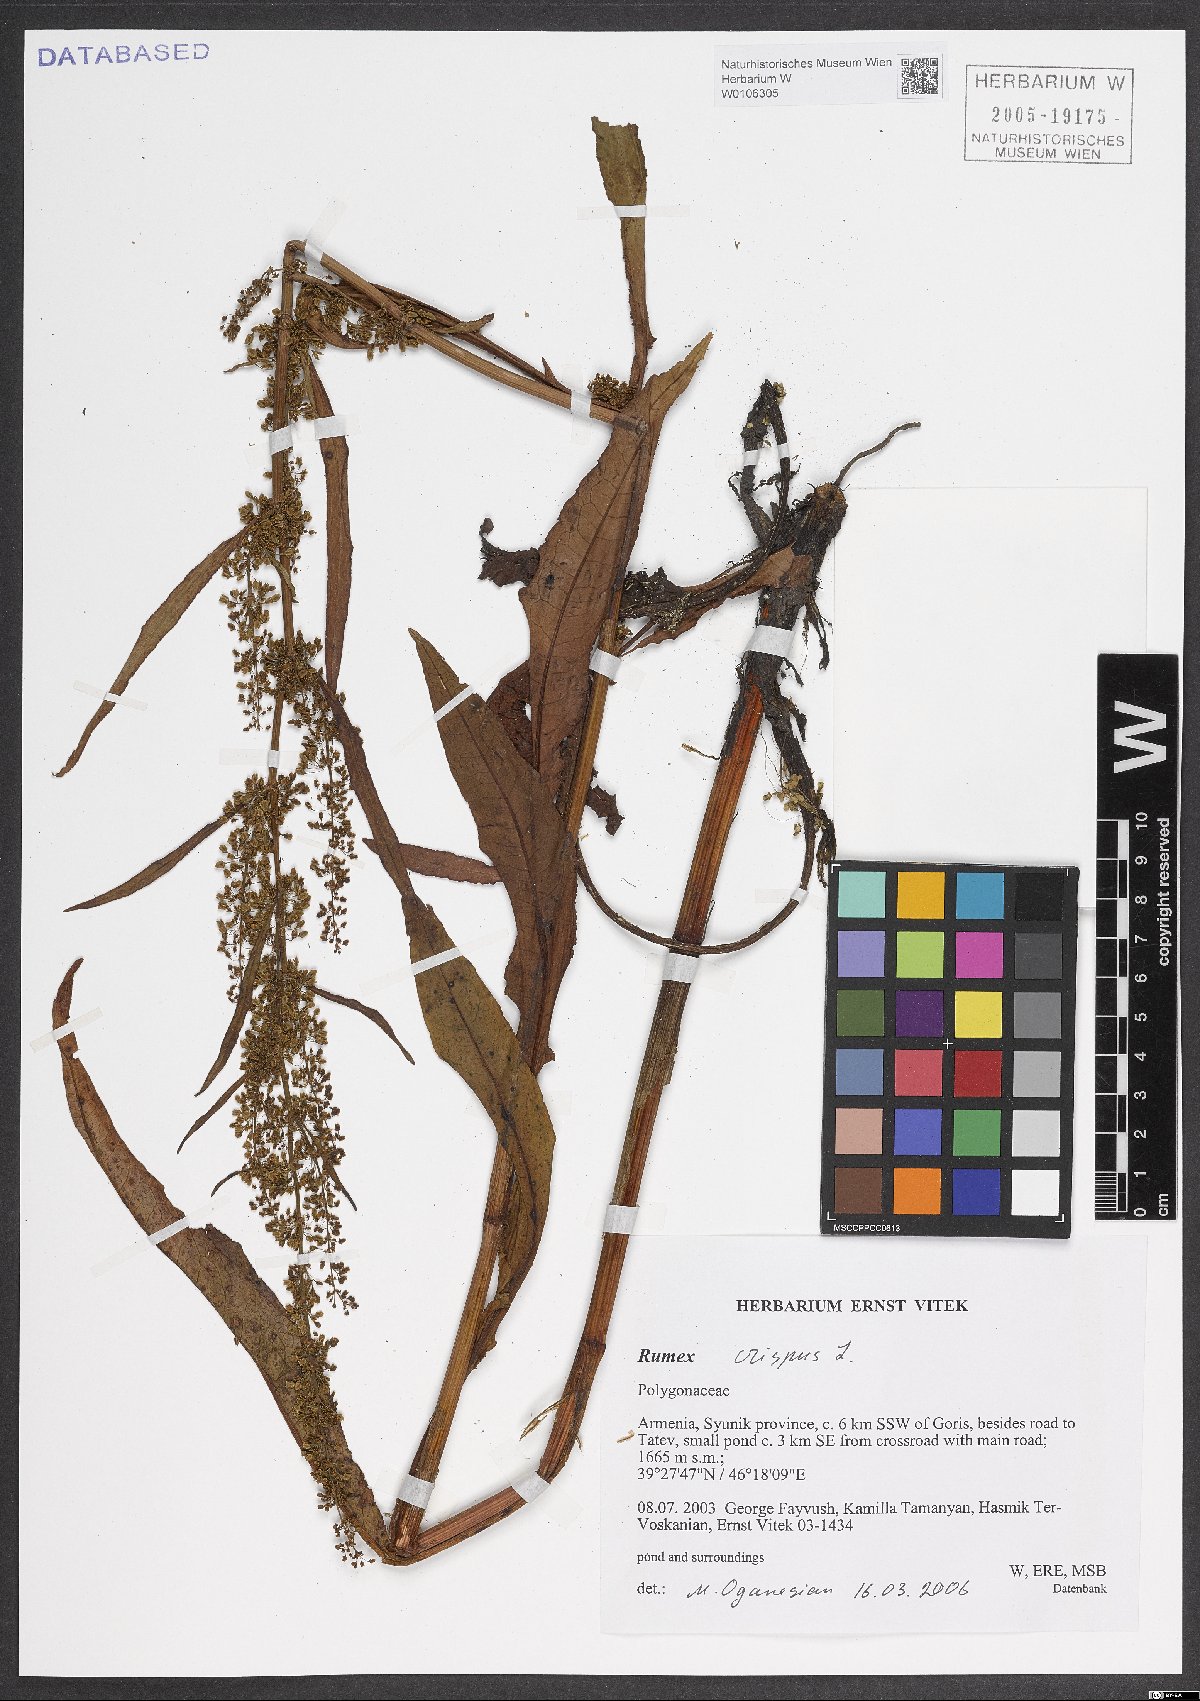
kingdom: Plantae
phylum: Tracheophyta
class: Magnoliopsida
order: Caryophyllales
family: Polygonaceae
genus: Rumex
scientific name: Rumex crispus
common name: Curled dock
